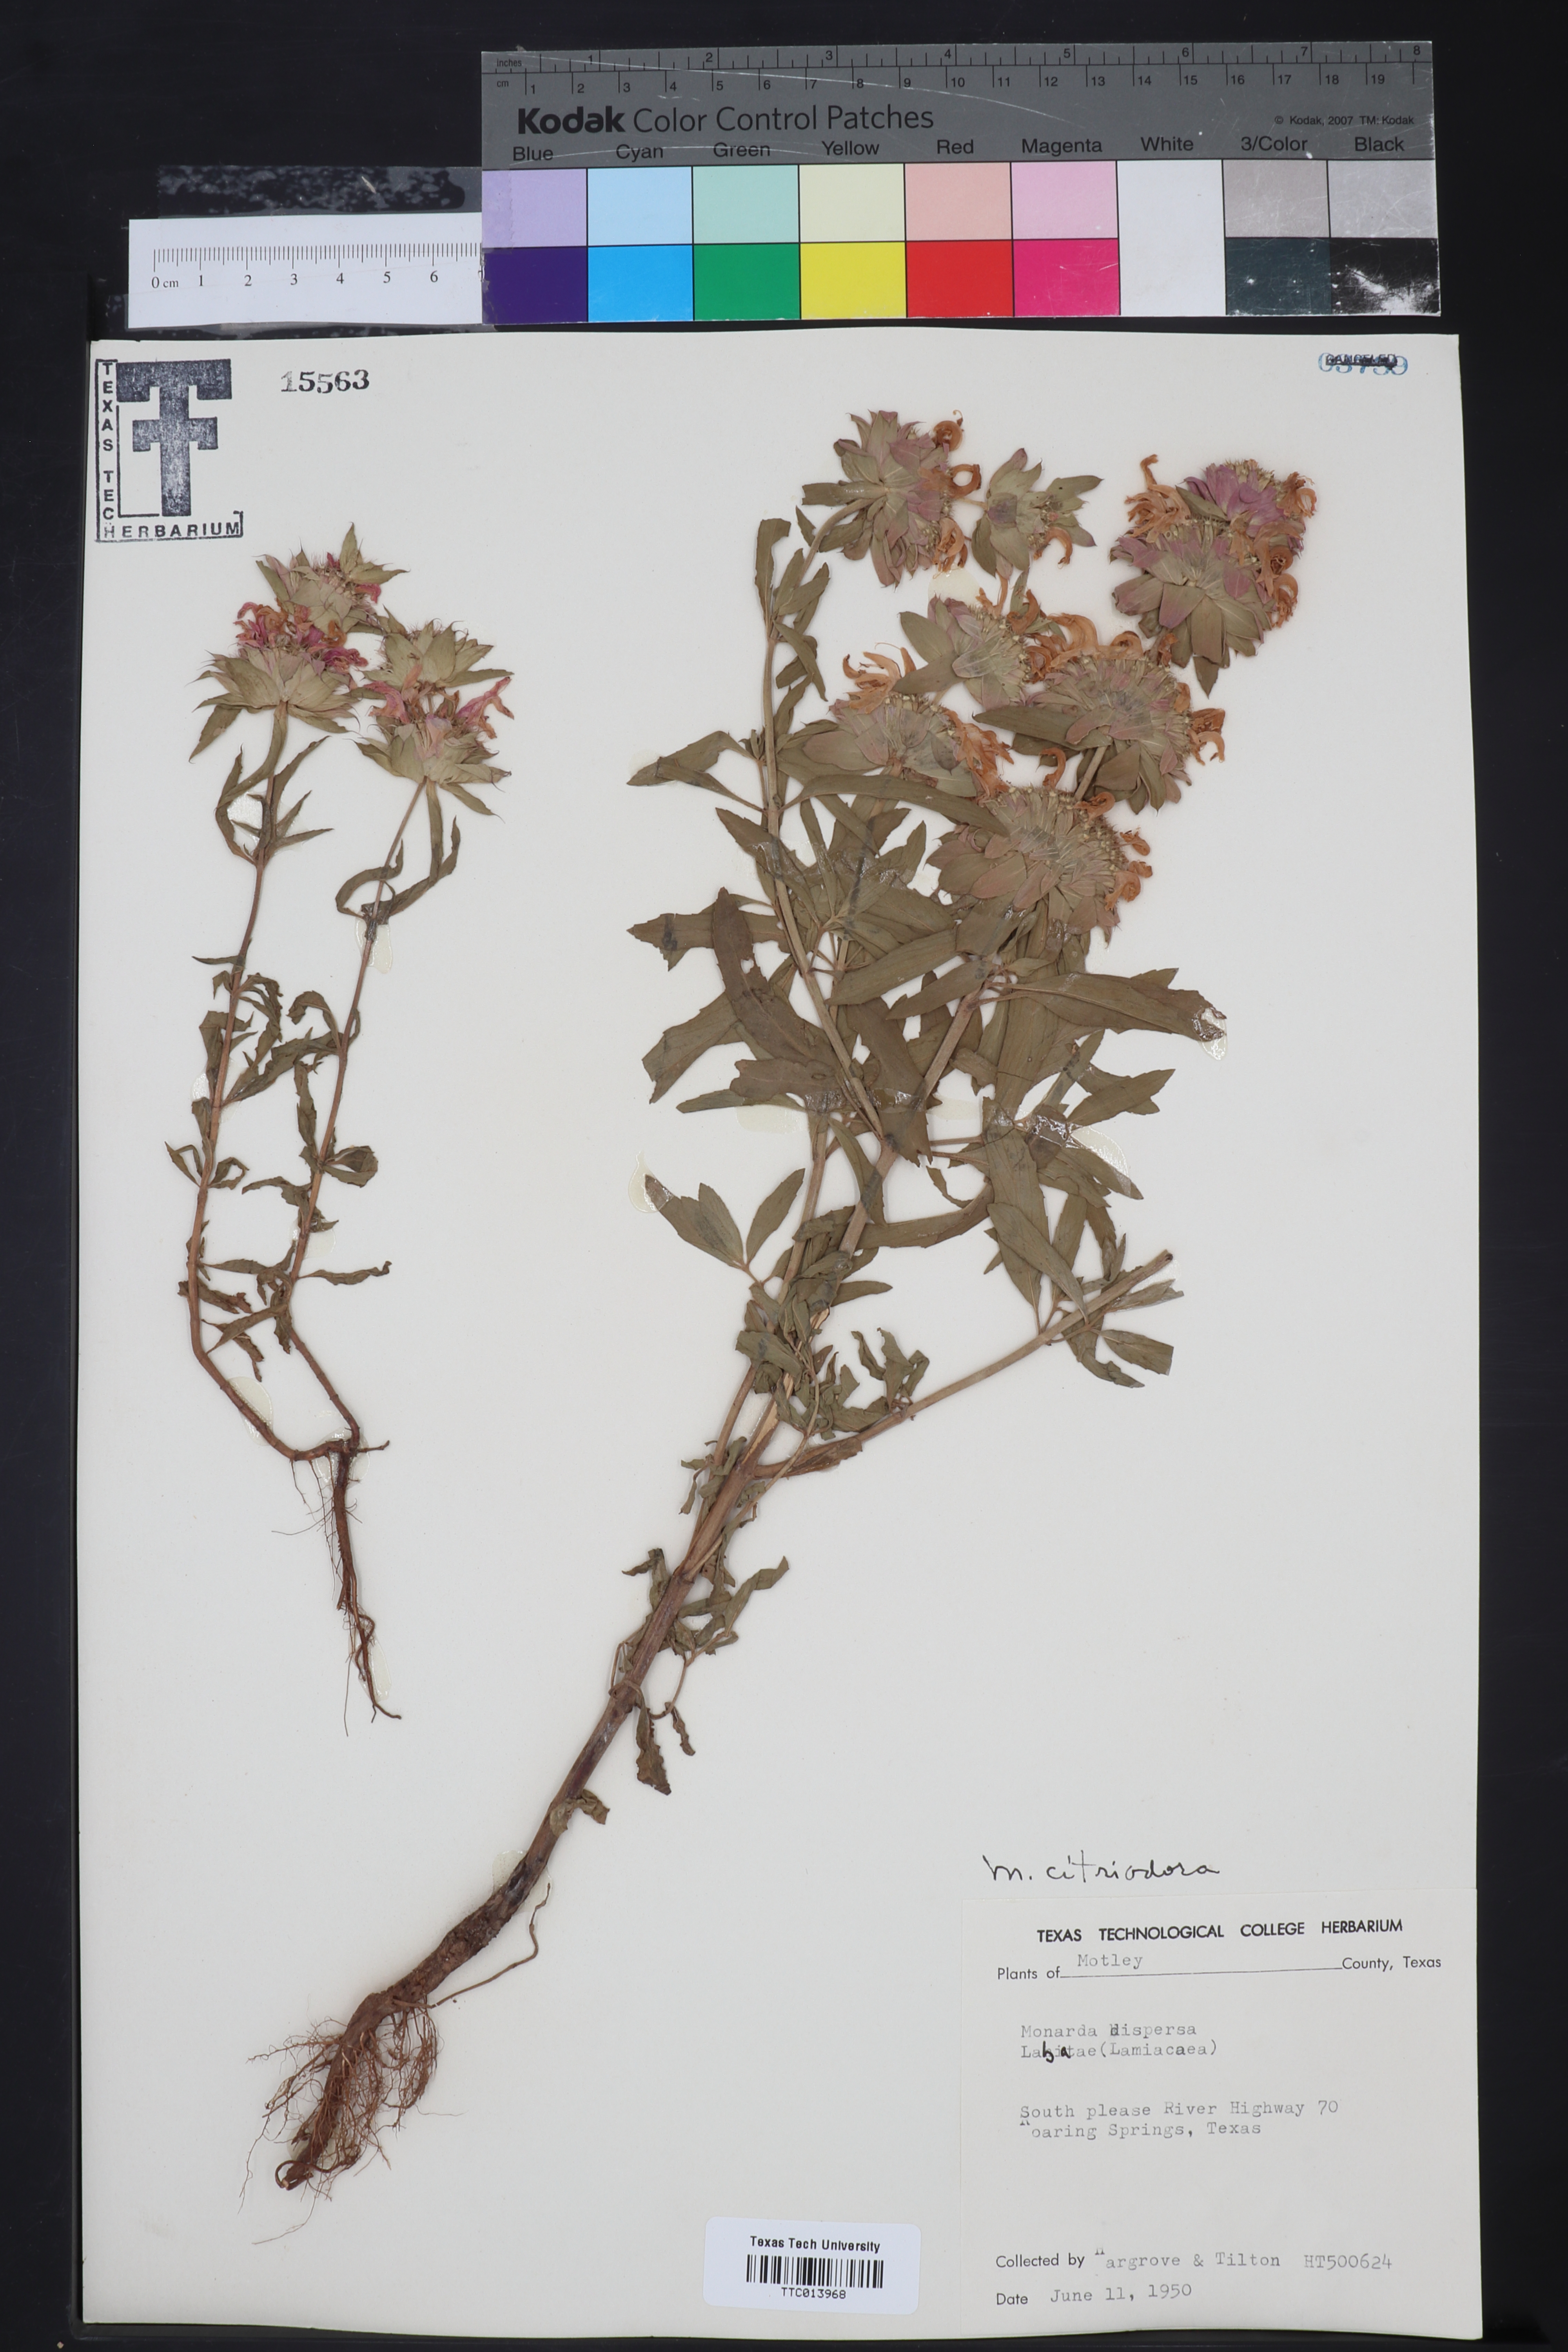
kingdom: Plantae
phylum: Tracheophyta
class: Magnoliopsida
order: Lamiales
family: Lamiaceae
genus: Monarda
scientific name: Monarda citriodora
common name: Lemon beebalm
